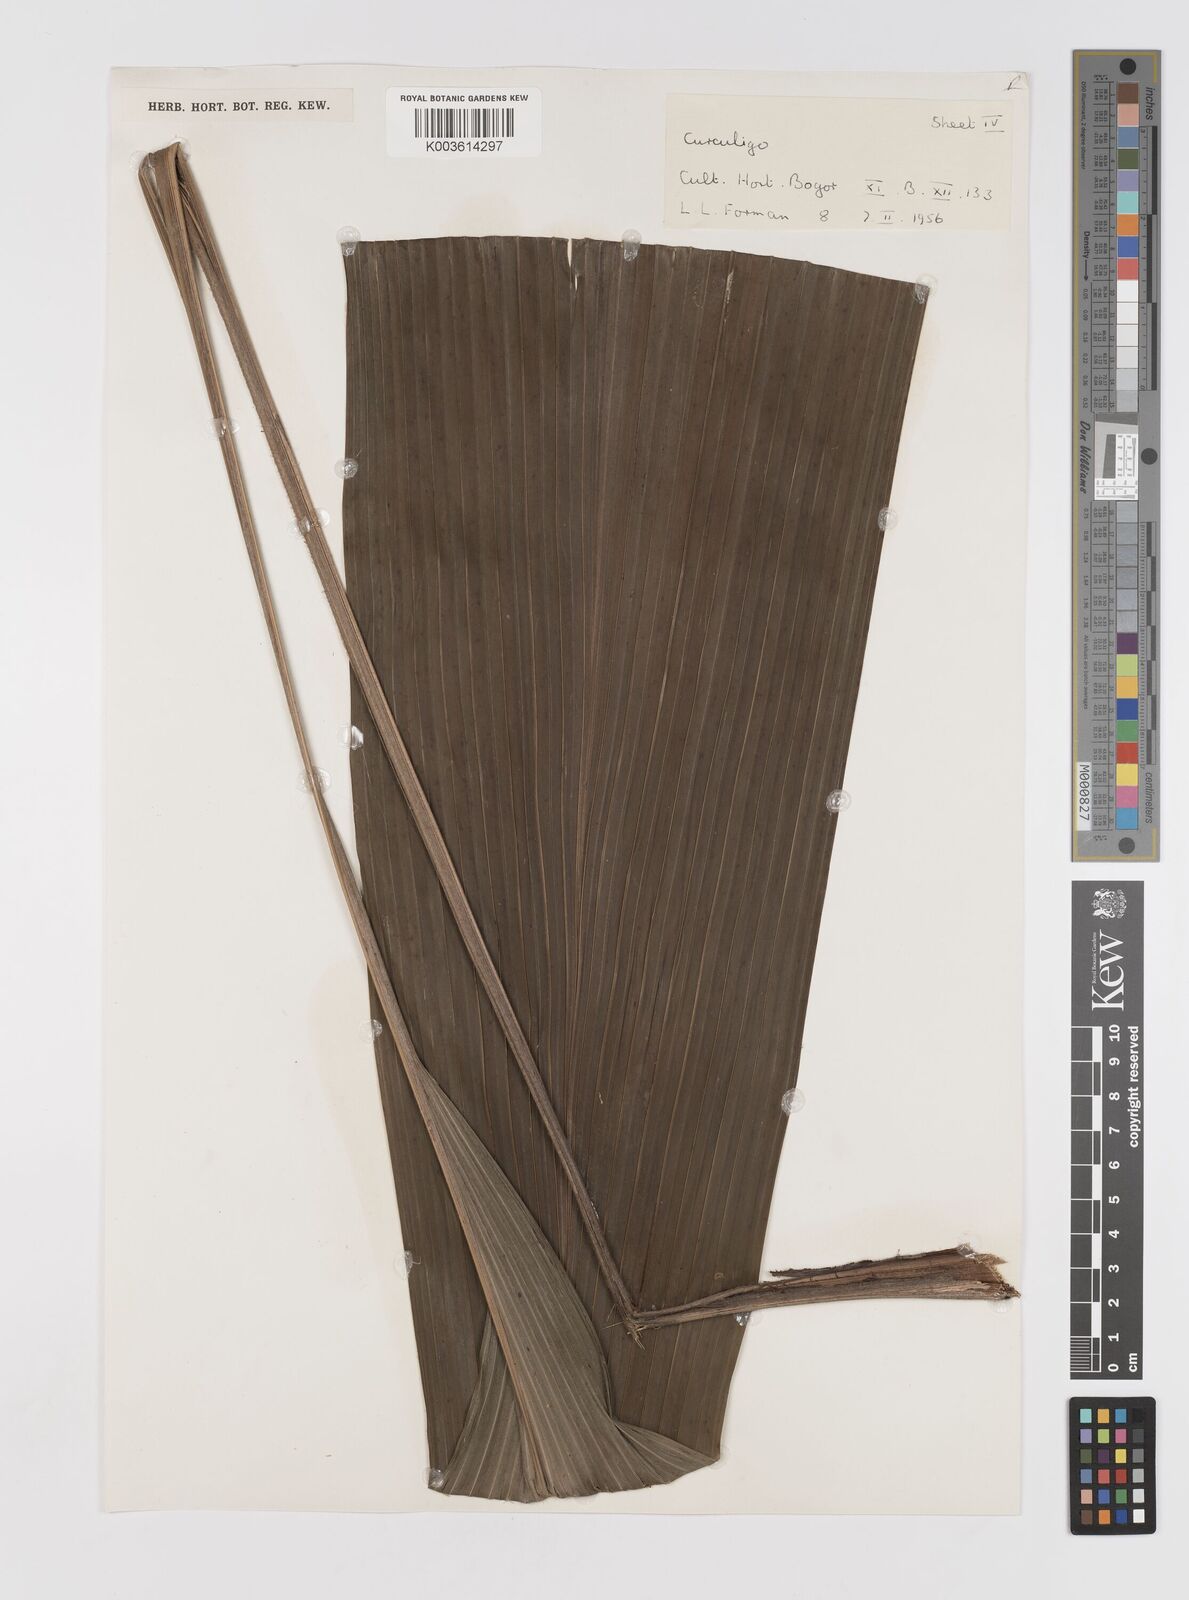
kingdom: Plantae
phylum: Tracheophyta
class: Liliopsida
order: Asparagales
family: Hypoxidaceae
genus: Curculigo
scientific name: Curculigo
